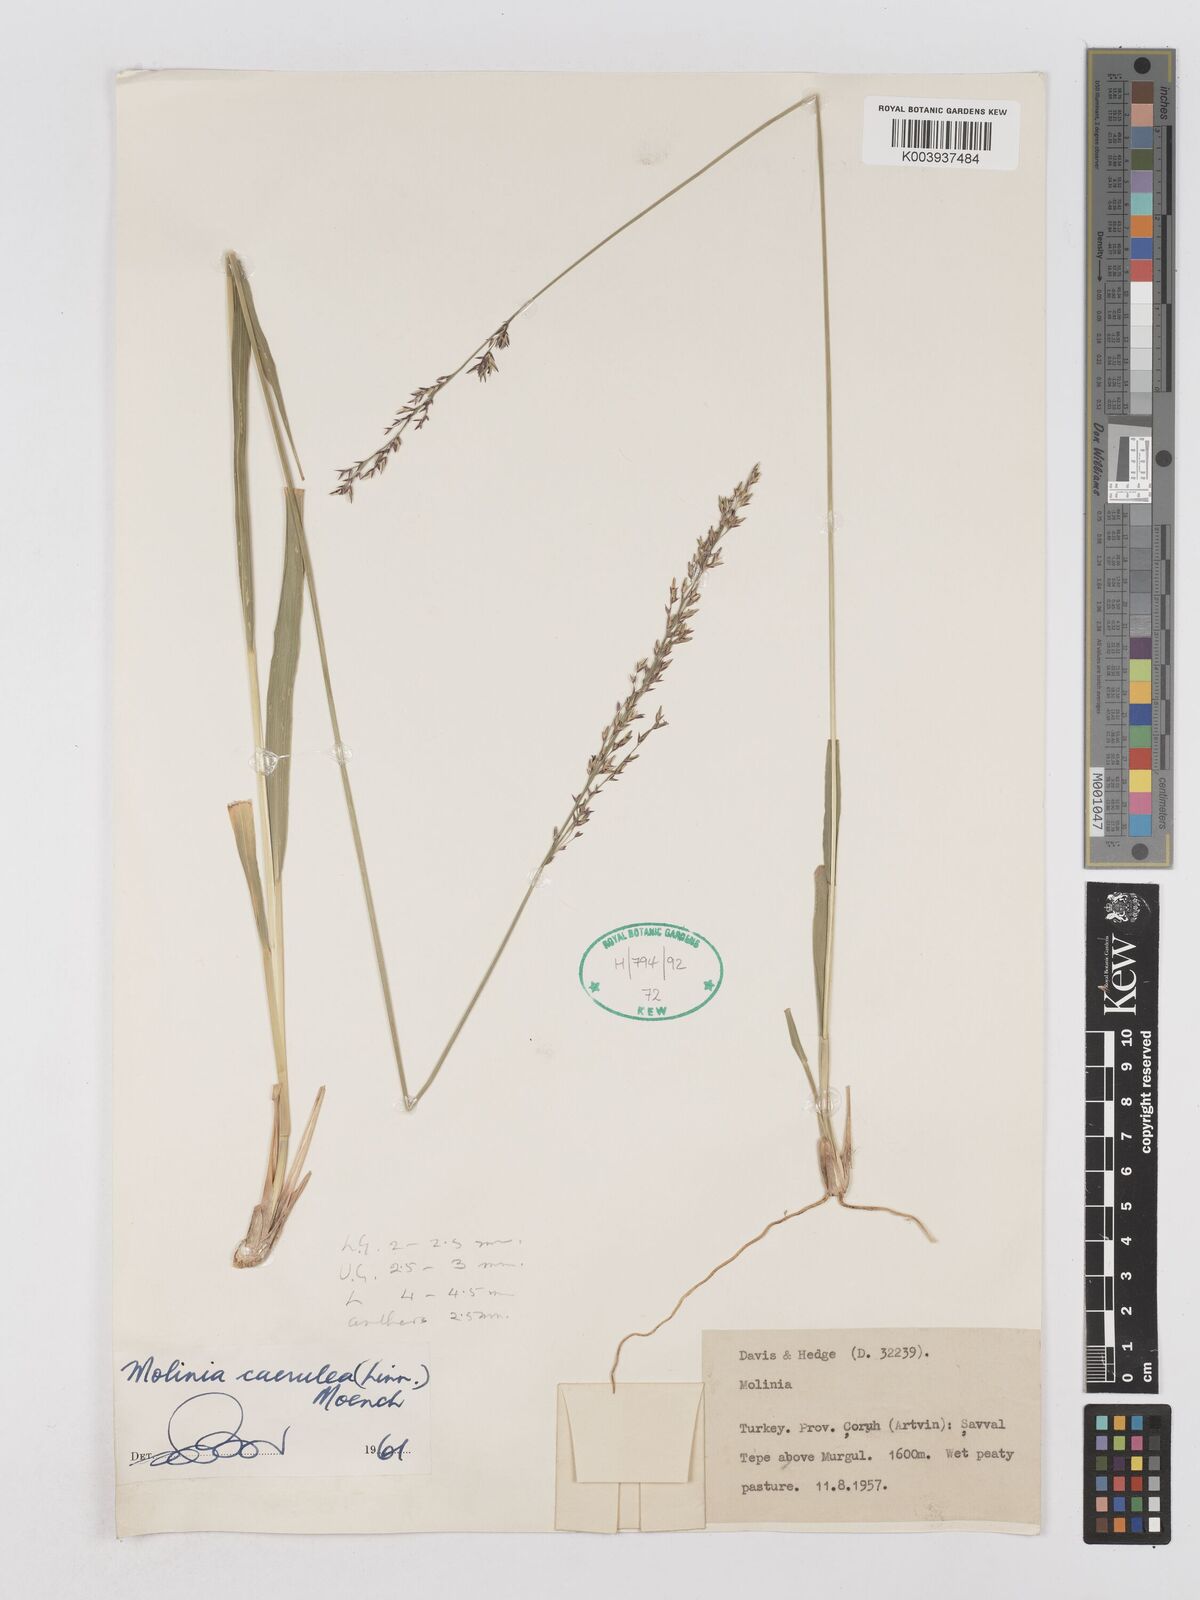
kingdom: Plantae
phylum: Tracheophyta
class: Liliopsida
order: Poales
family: Poaceae
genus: Molinia
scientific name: Molinia caerulea
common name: Purple moor-grass
